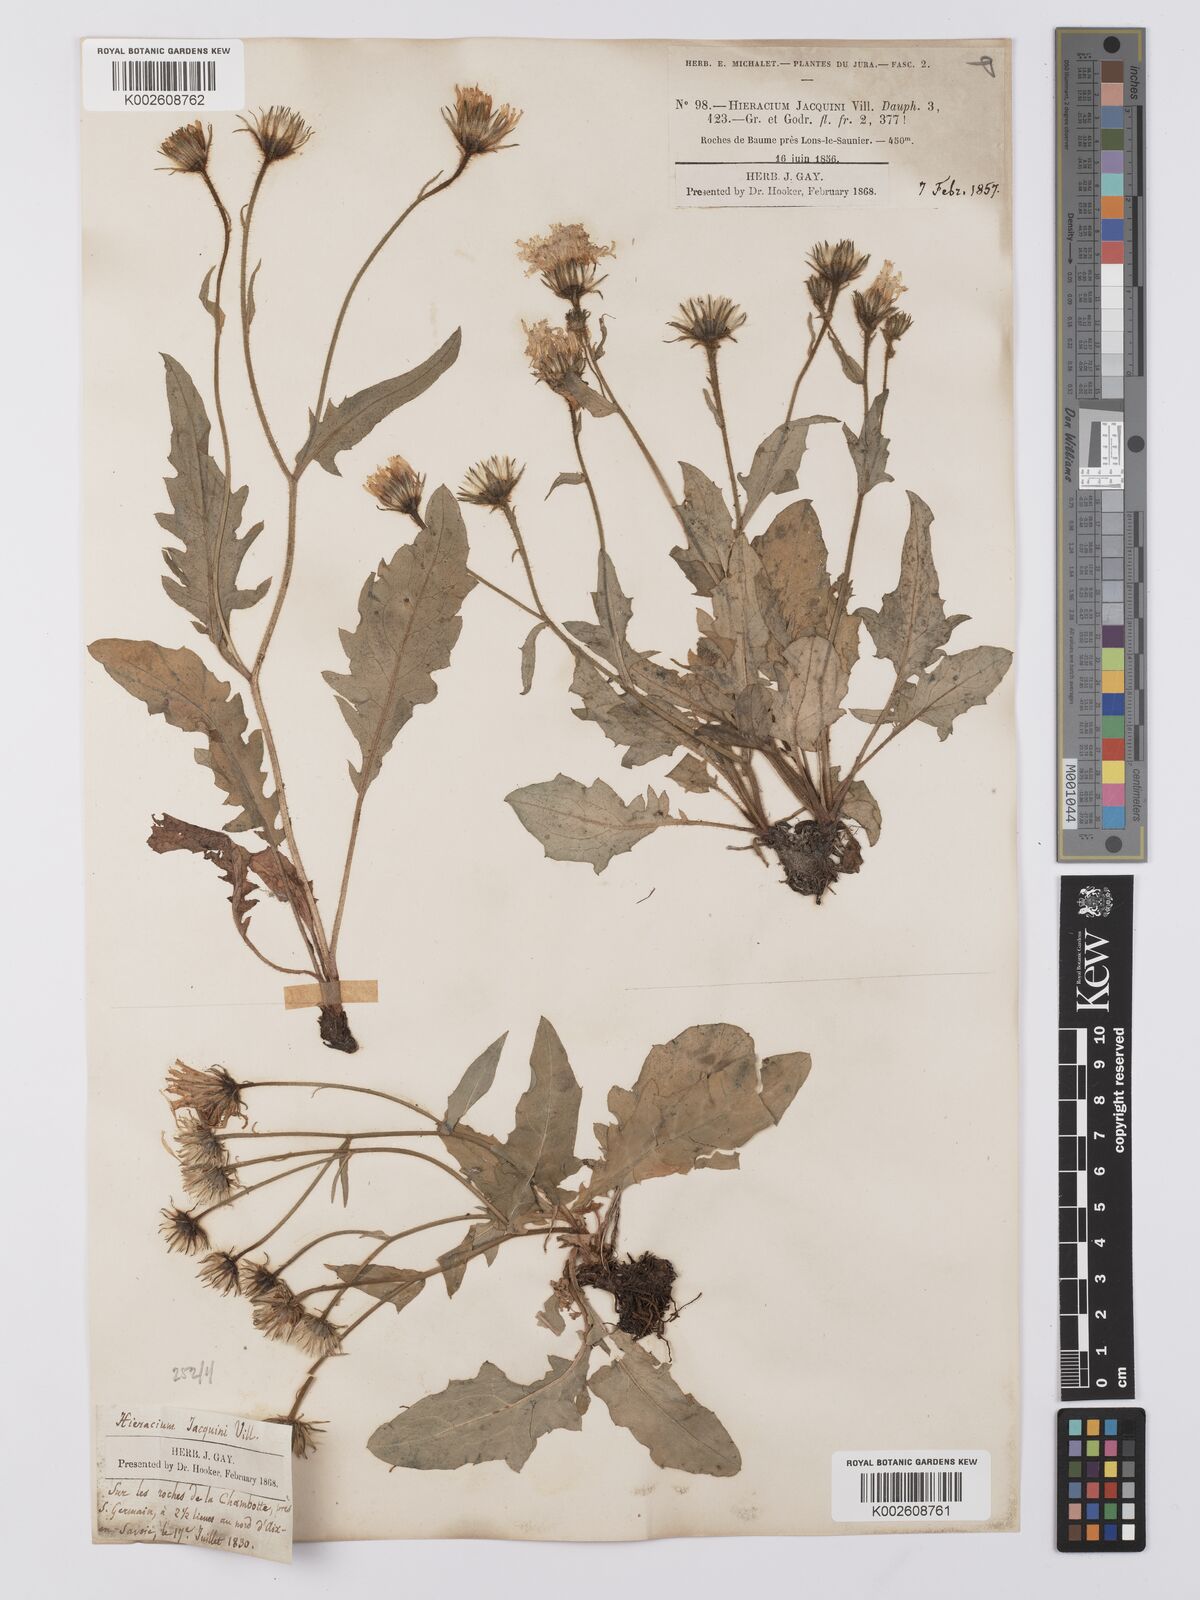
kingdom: Plantae
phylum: Tracheophyta
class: Magnoliopsida
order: Asterales
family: Asteraceae
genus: Hieracium
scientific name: Hieracium humile
